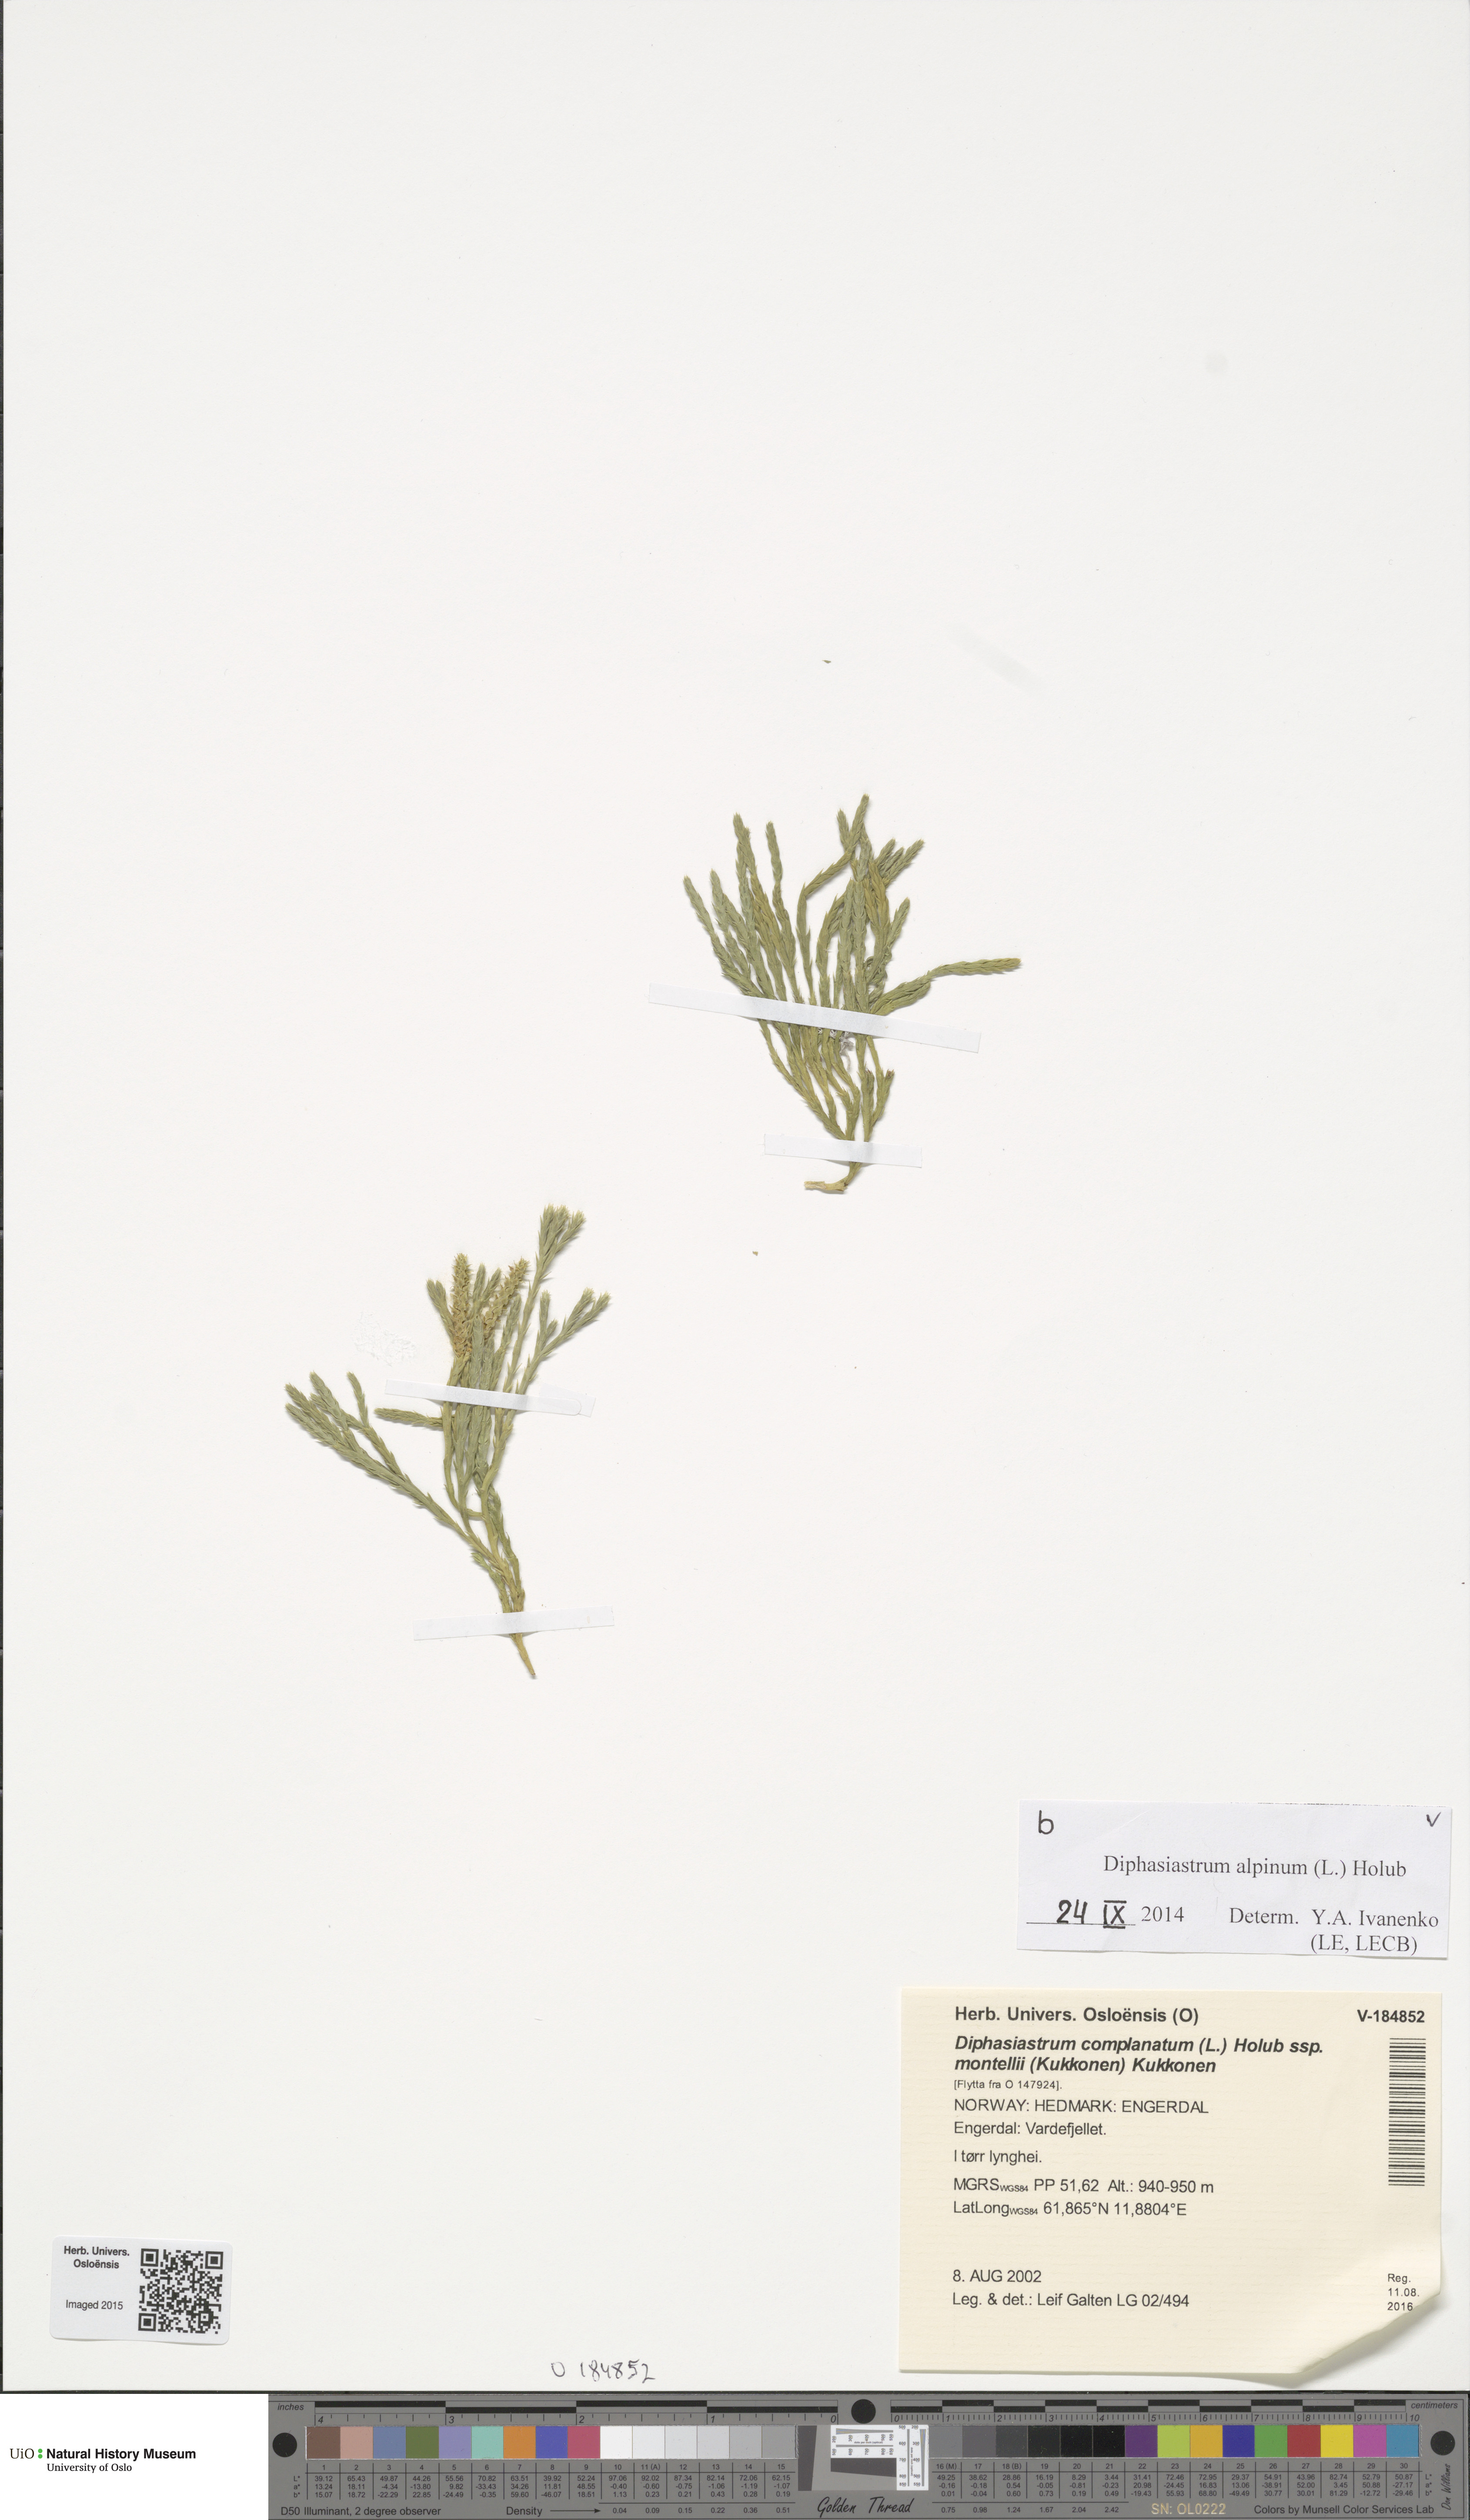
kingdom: Plantae
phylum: Tracheophyta
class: Lycopodiopsida
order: Lycopodiales
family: Lycopodiaceae
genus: Diphasiastrum
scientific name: Diphasiastrum alpinum
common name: Alpine clubmoss
